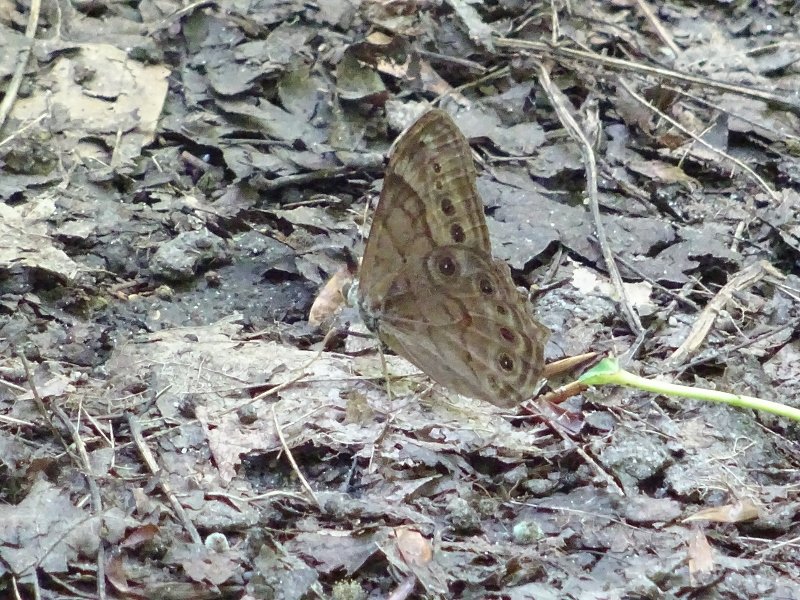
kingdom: Animalia
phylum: Arthropoda
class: Insecta
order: Lepidoptera
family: Nymphalidae
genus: Lethe
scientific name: Lethe anthedon
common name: Northern Pearly-Eye
